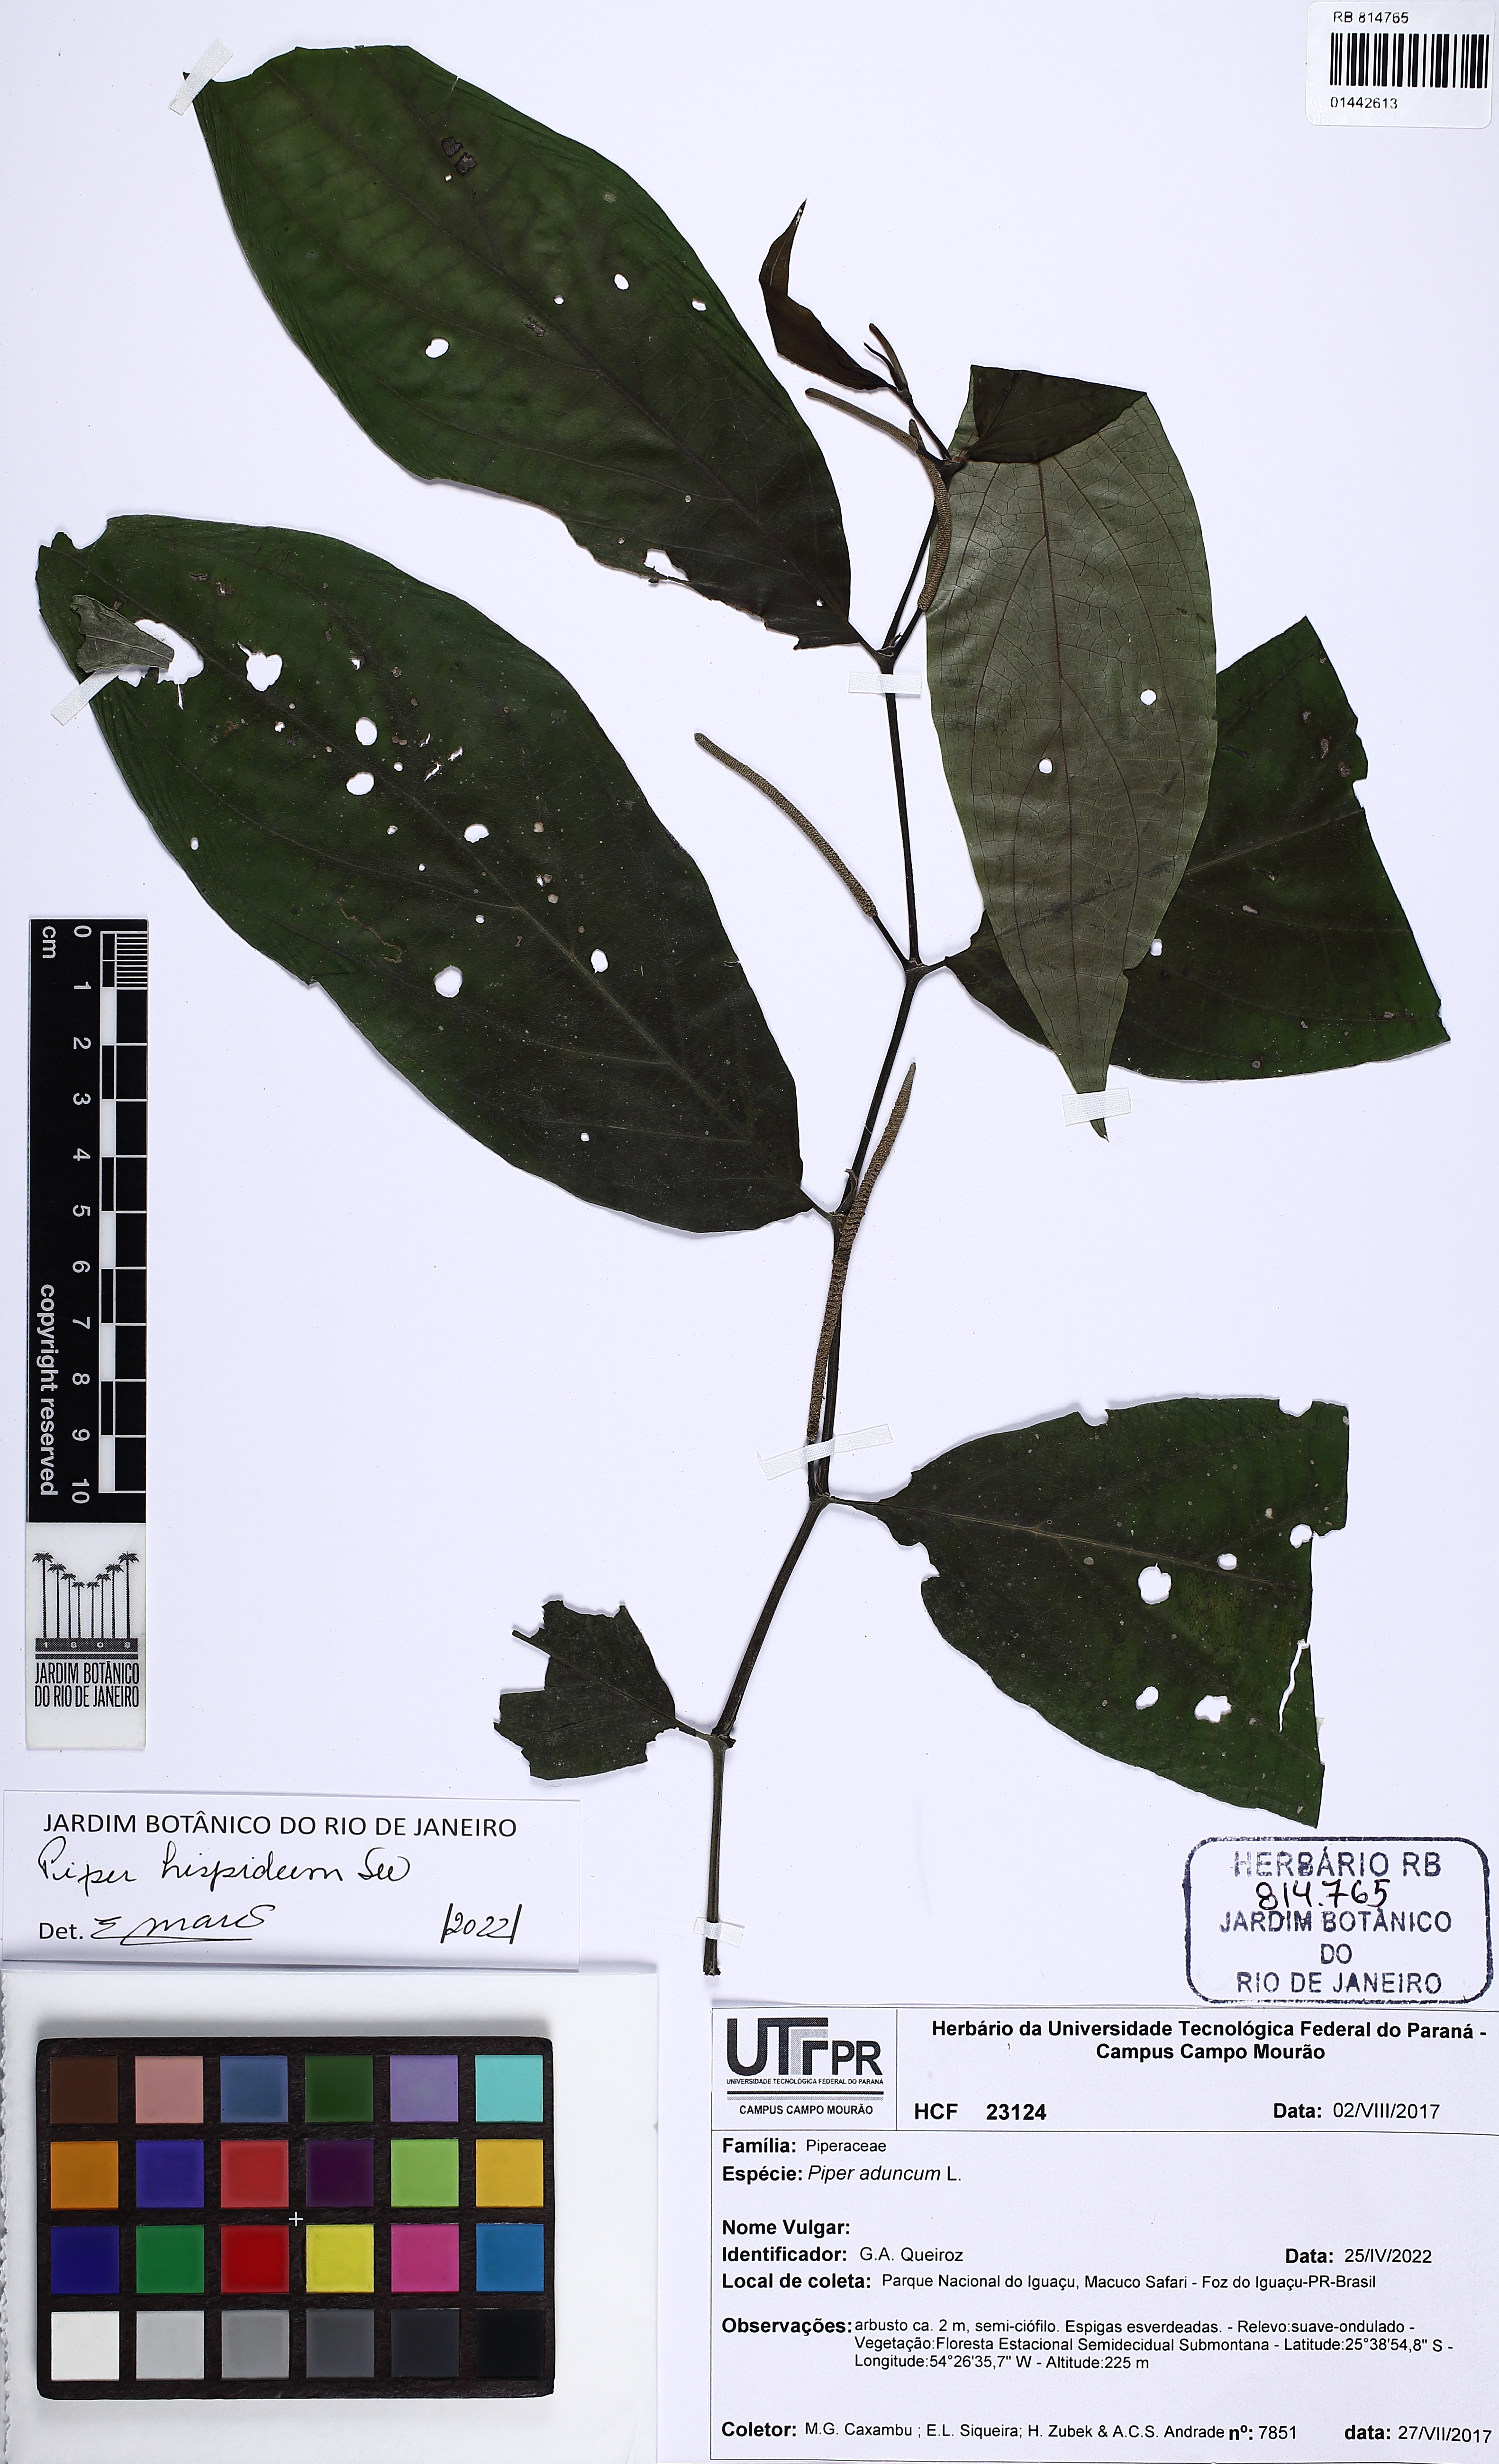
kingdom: Plantae
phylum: Tracheophyta
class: Magnoliopsida
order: Piperales
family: Piperaceae
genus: Piper
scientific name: Piper hispidum
